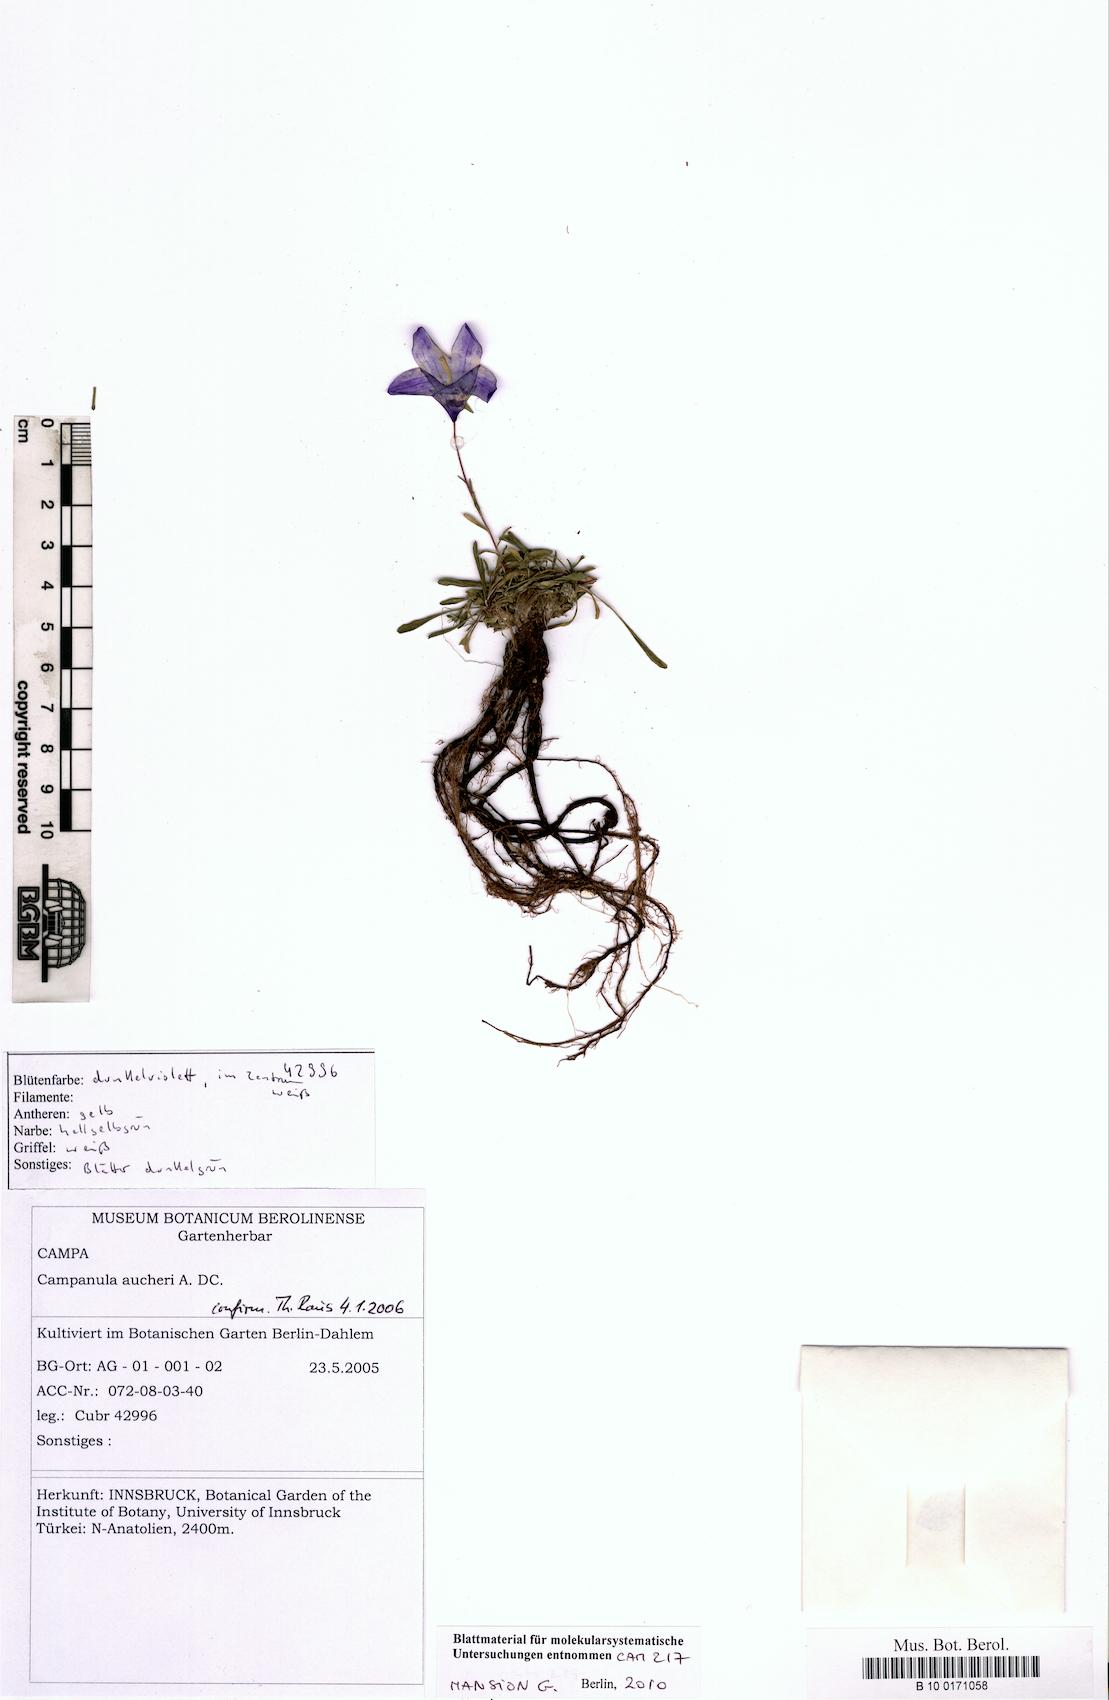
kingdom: Plantae
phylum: Tracheophyta
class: Magnoliopsida
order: Asterales
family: Campanulaceae
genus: Campanula
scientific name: Campanula saxifraga
